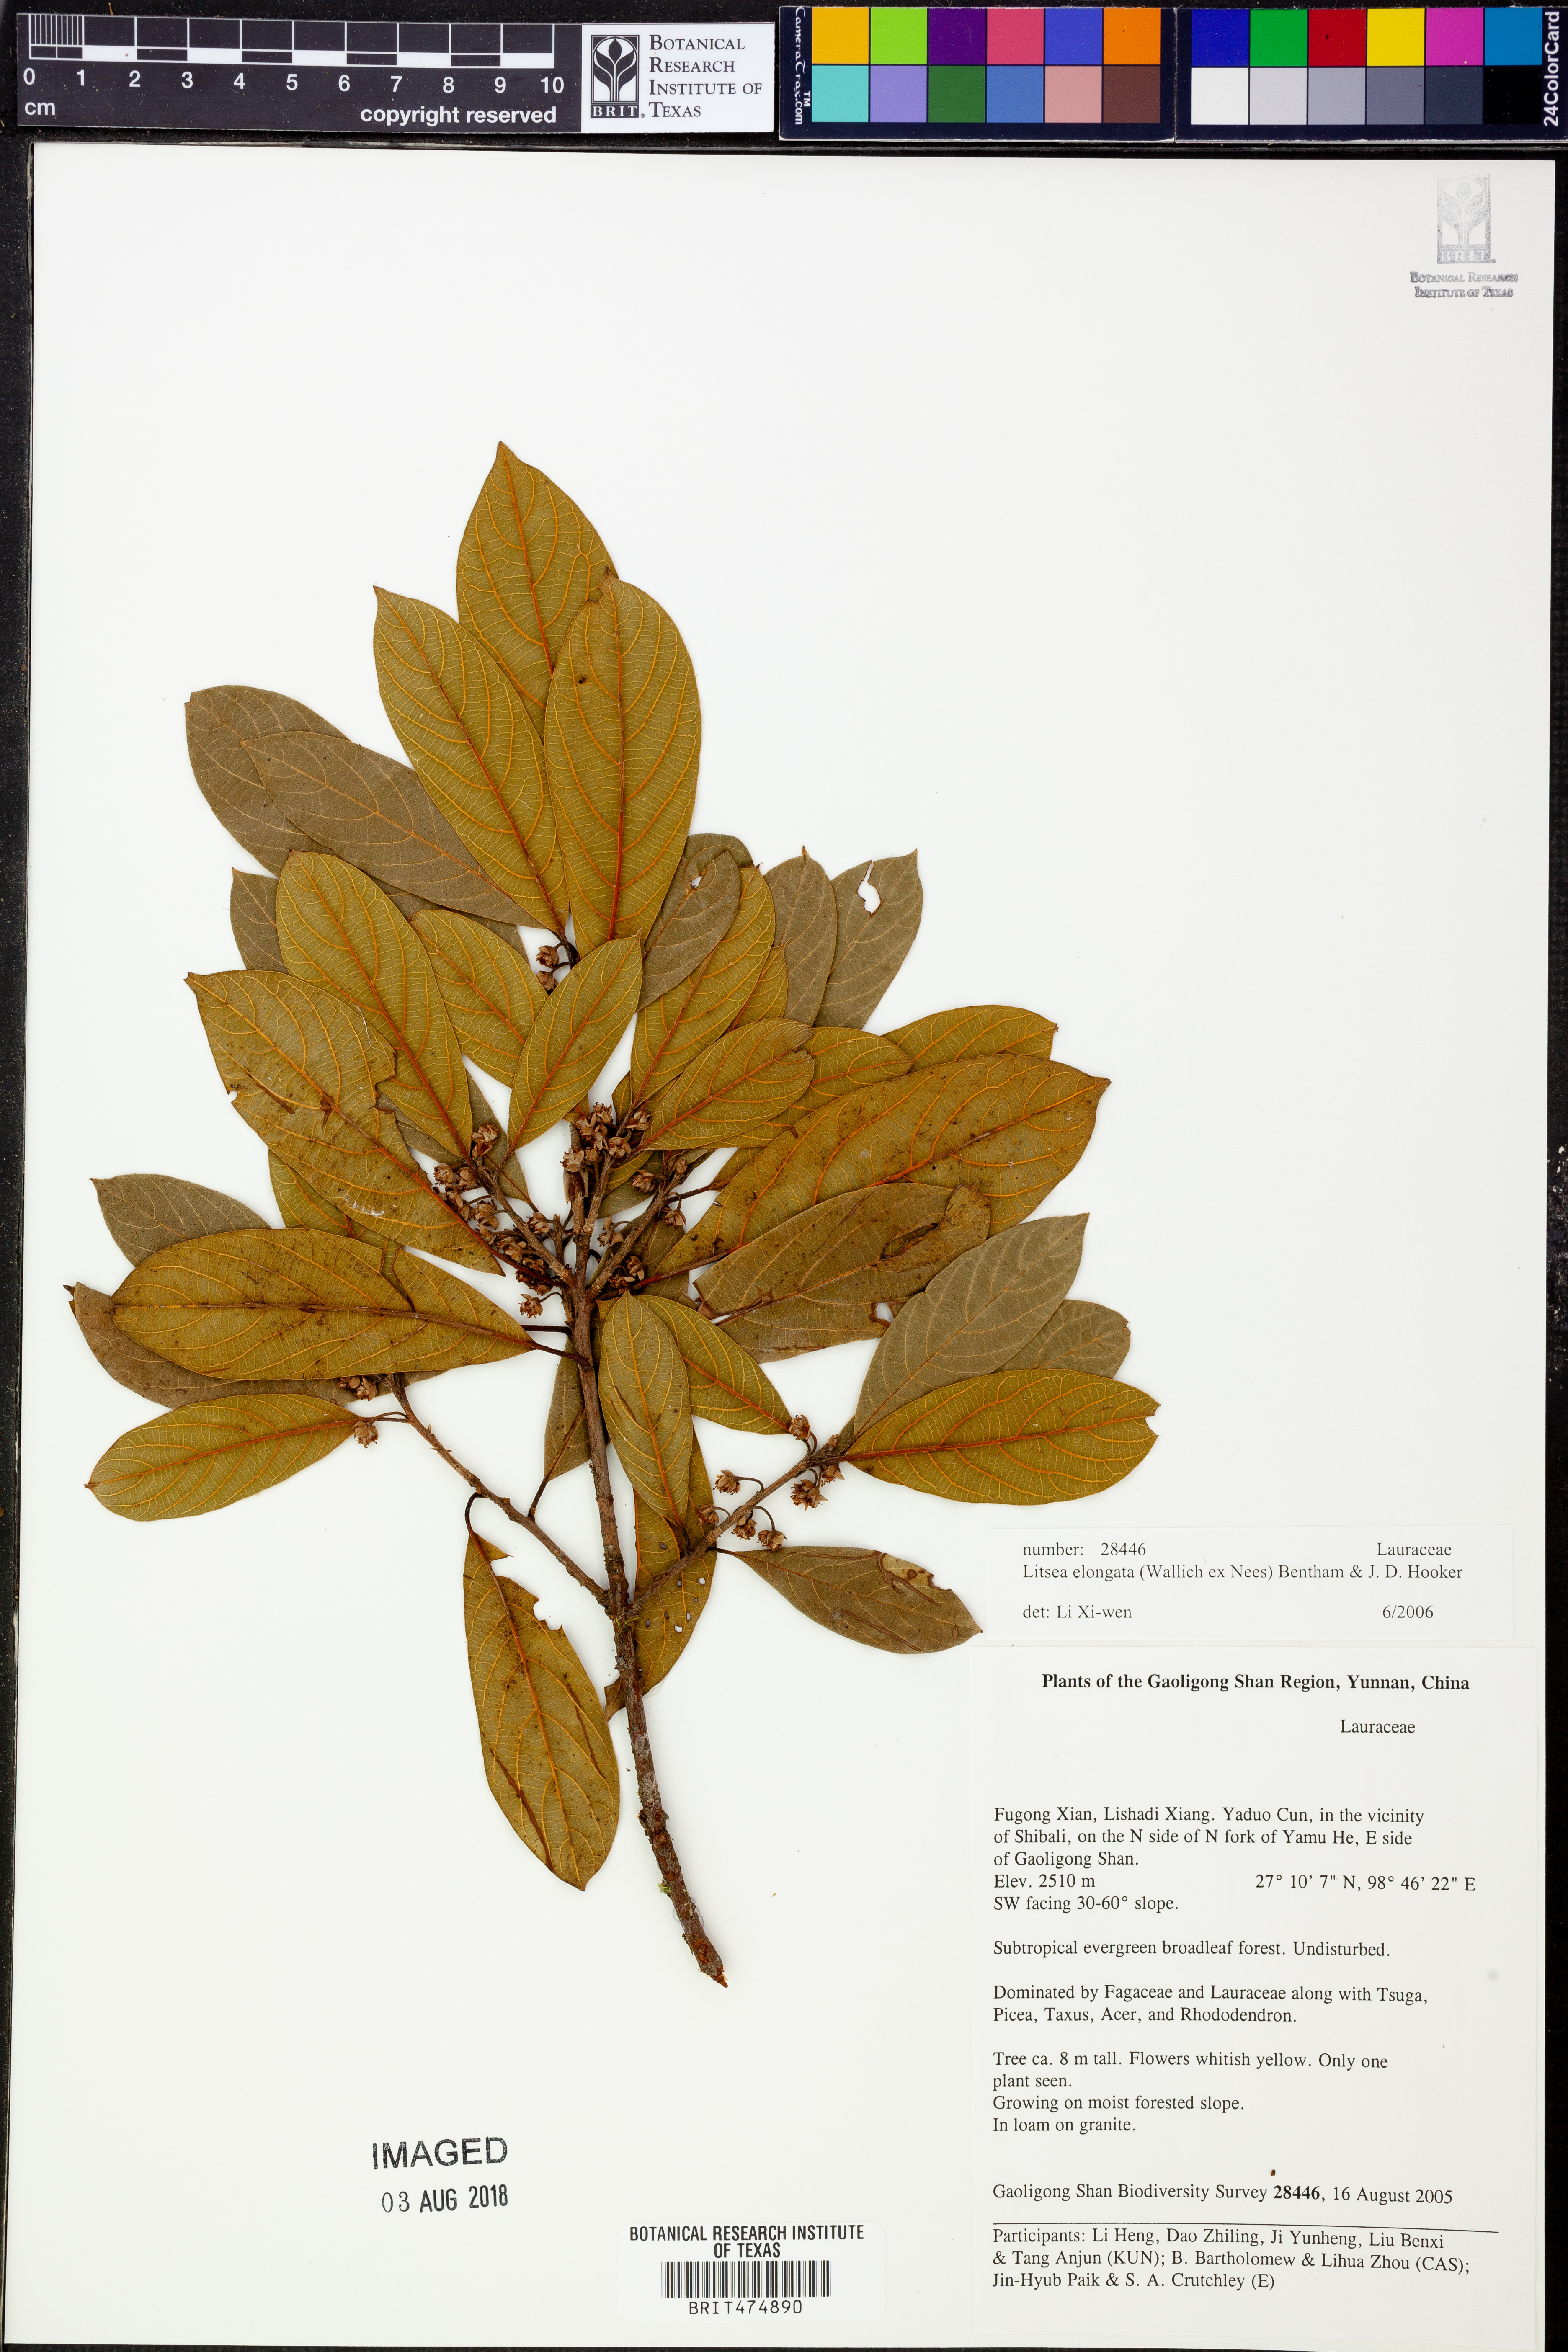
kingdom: Plantae
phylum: Tracheophyta
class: Magnoliopsida
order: Laurales
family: Lauraceae
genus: Litsea
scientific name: Litsea elongata
